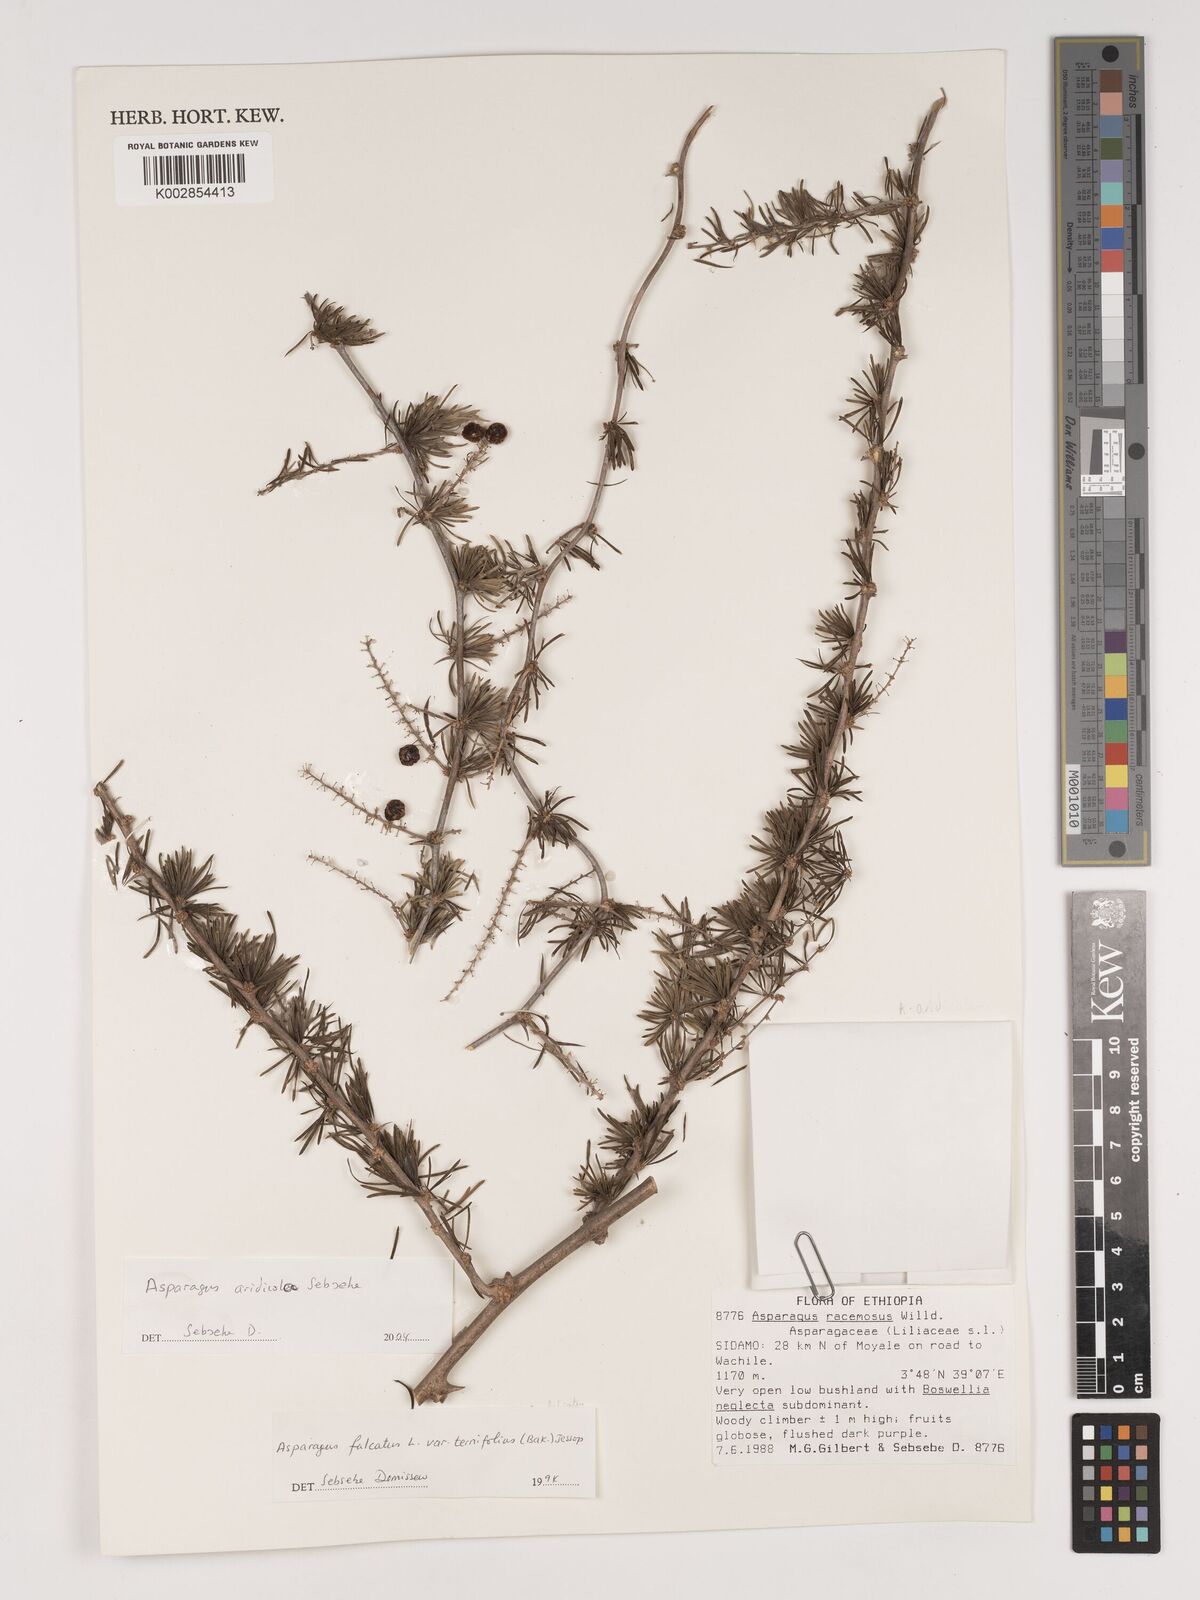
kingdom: Plantae
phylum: Tracheophyta
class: Liliopsida
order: Asparagales
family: Asparagaceae
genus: Asparagus
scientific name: Asparagus aridicola
